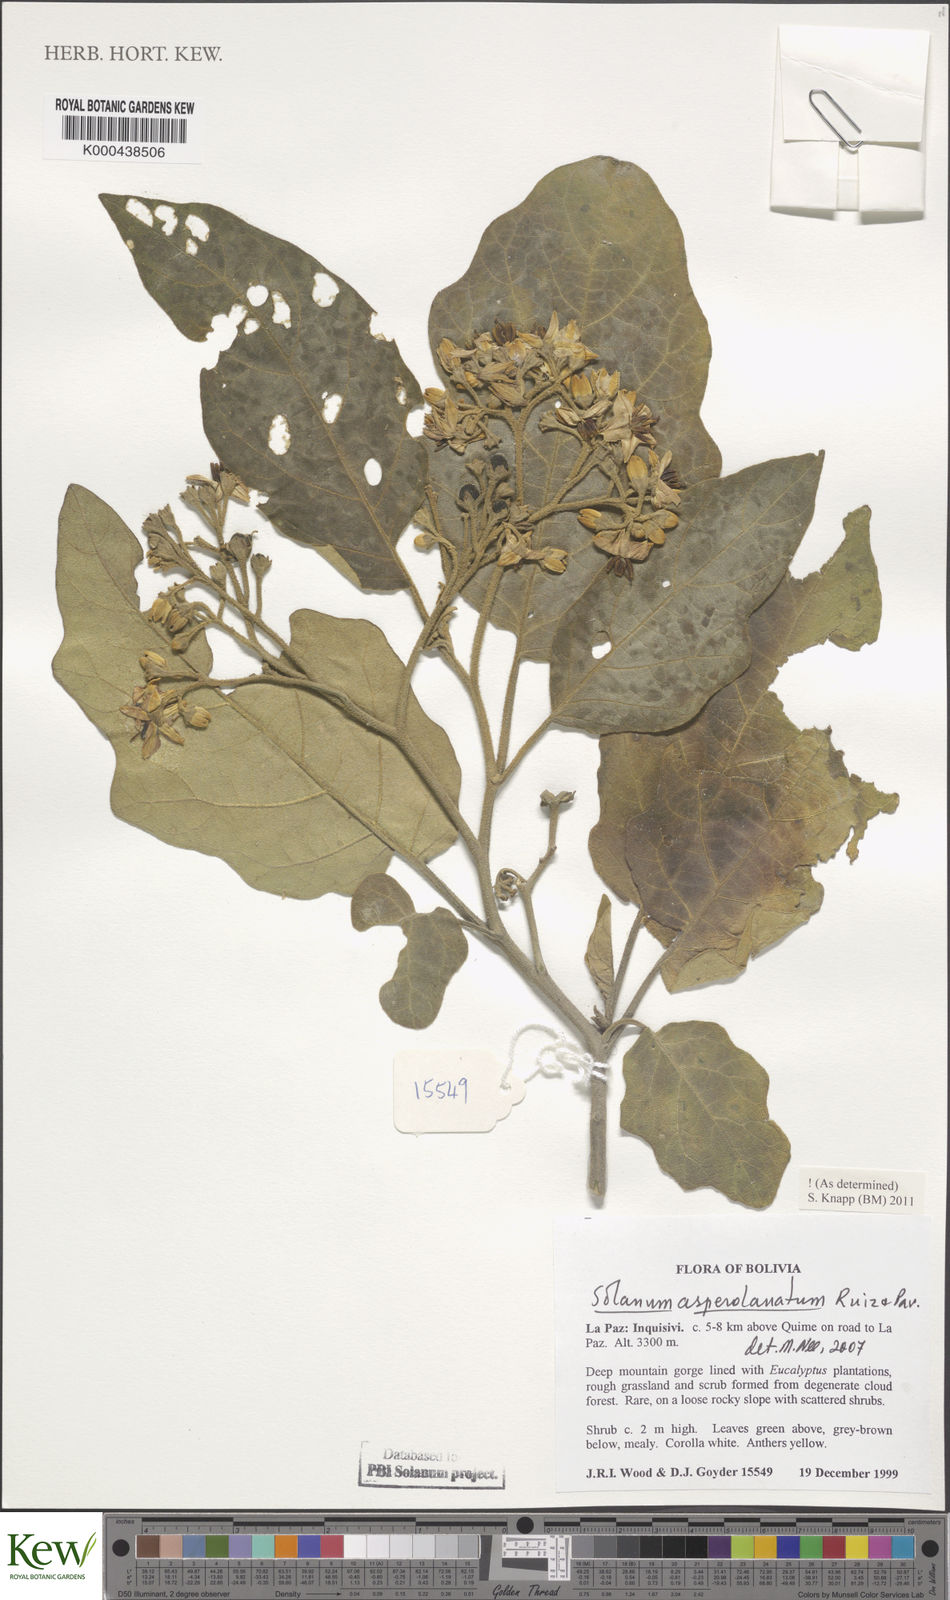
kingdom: Plantae
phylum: Tracheophyta
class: Magnoliopsida
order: Solanales
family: Solanaceae
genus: Solanum
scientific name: Solanum asperolanatum
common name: Devil's-fig
